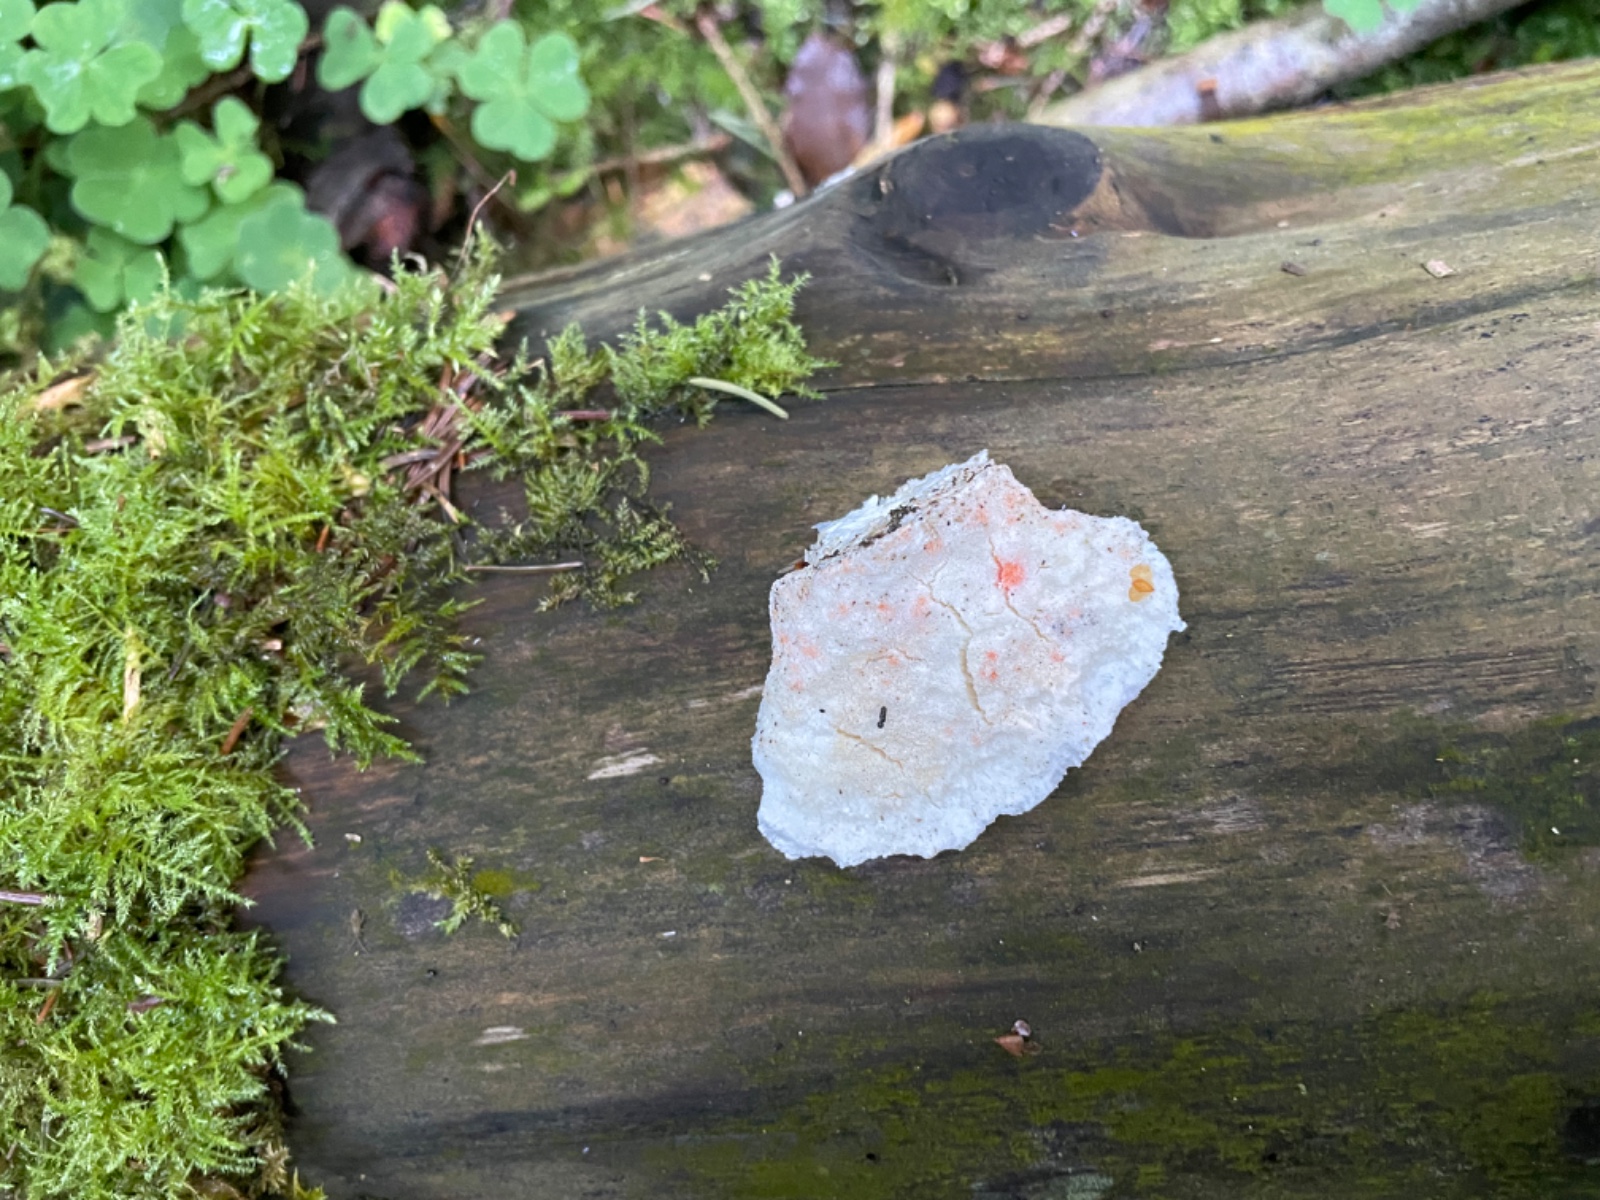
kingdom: Fungi
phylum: Basidiomycota
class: Agaricomycetes
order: Polyporales
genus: Amaropostia
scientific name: Amaropostia stiptica
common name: bitter kødporesvamp
